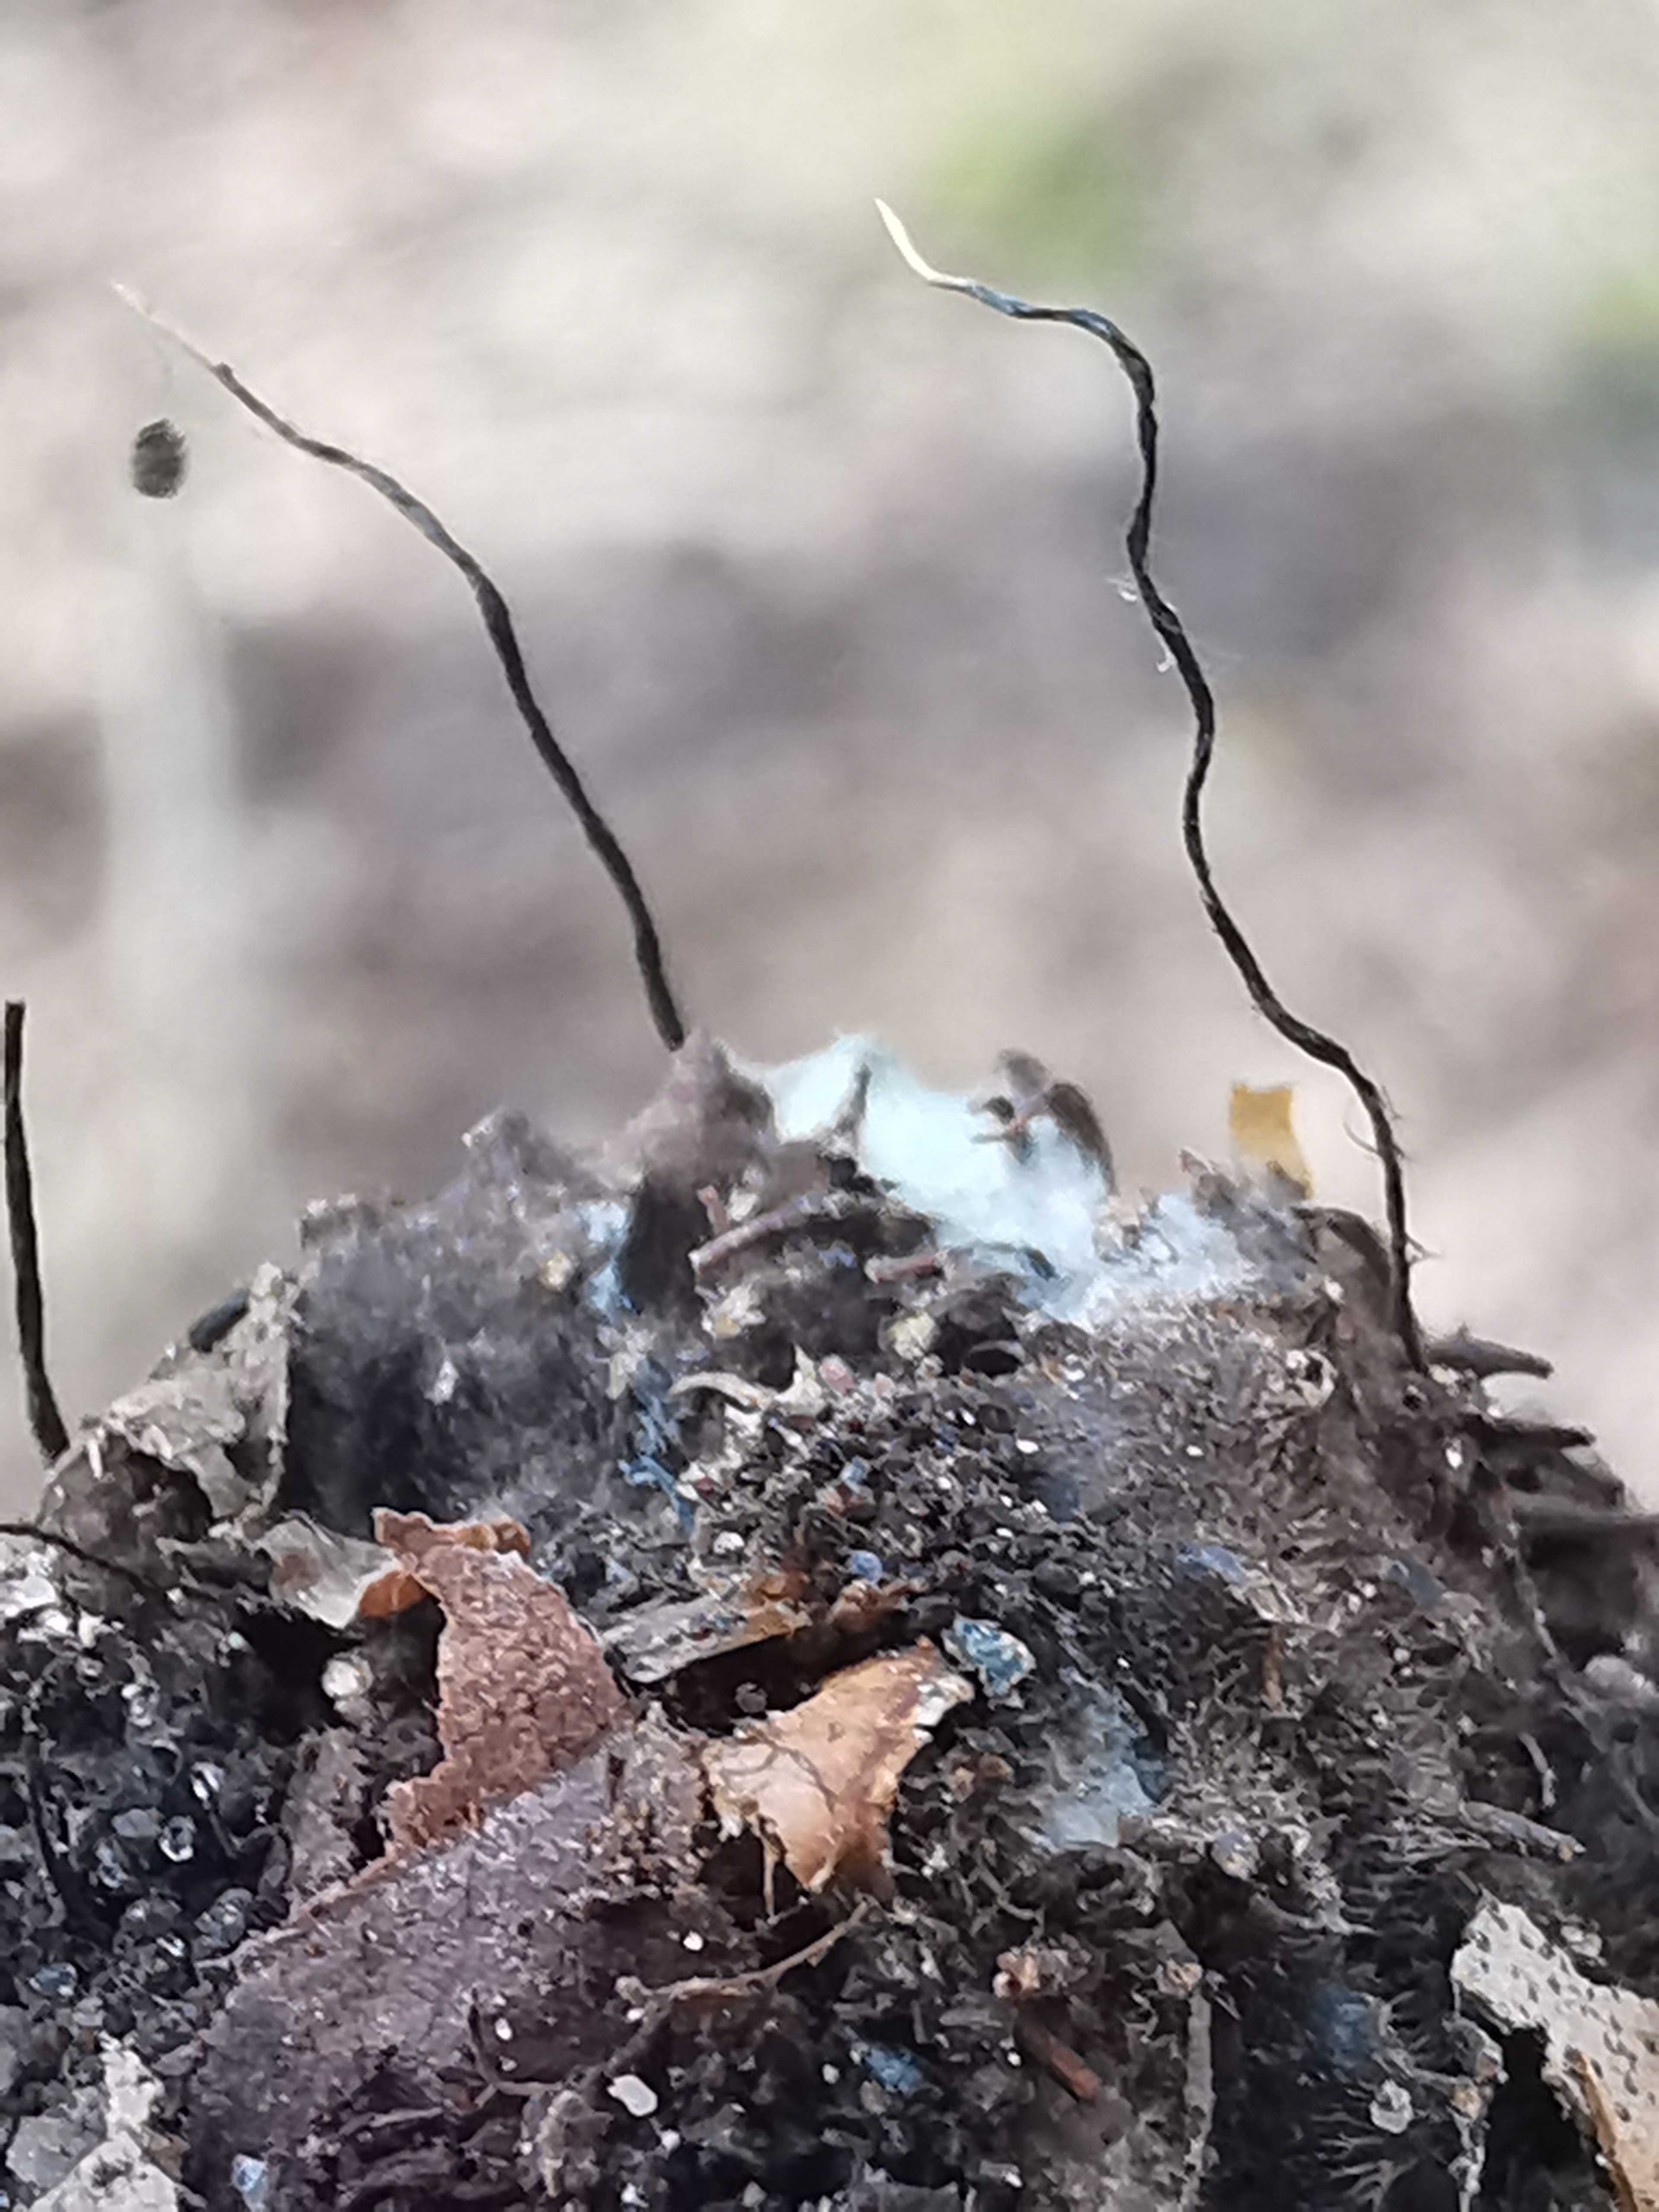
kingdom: Fungi
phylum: Ascomycota
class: Sordariomycetes
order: Xylariales
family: Xylariaceae
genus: Xylaria
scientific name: Xylaria carpophila
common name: bogskål-stødsvamp
